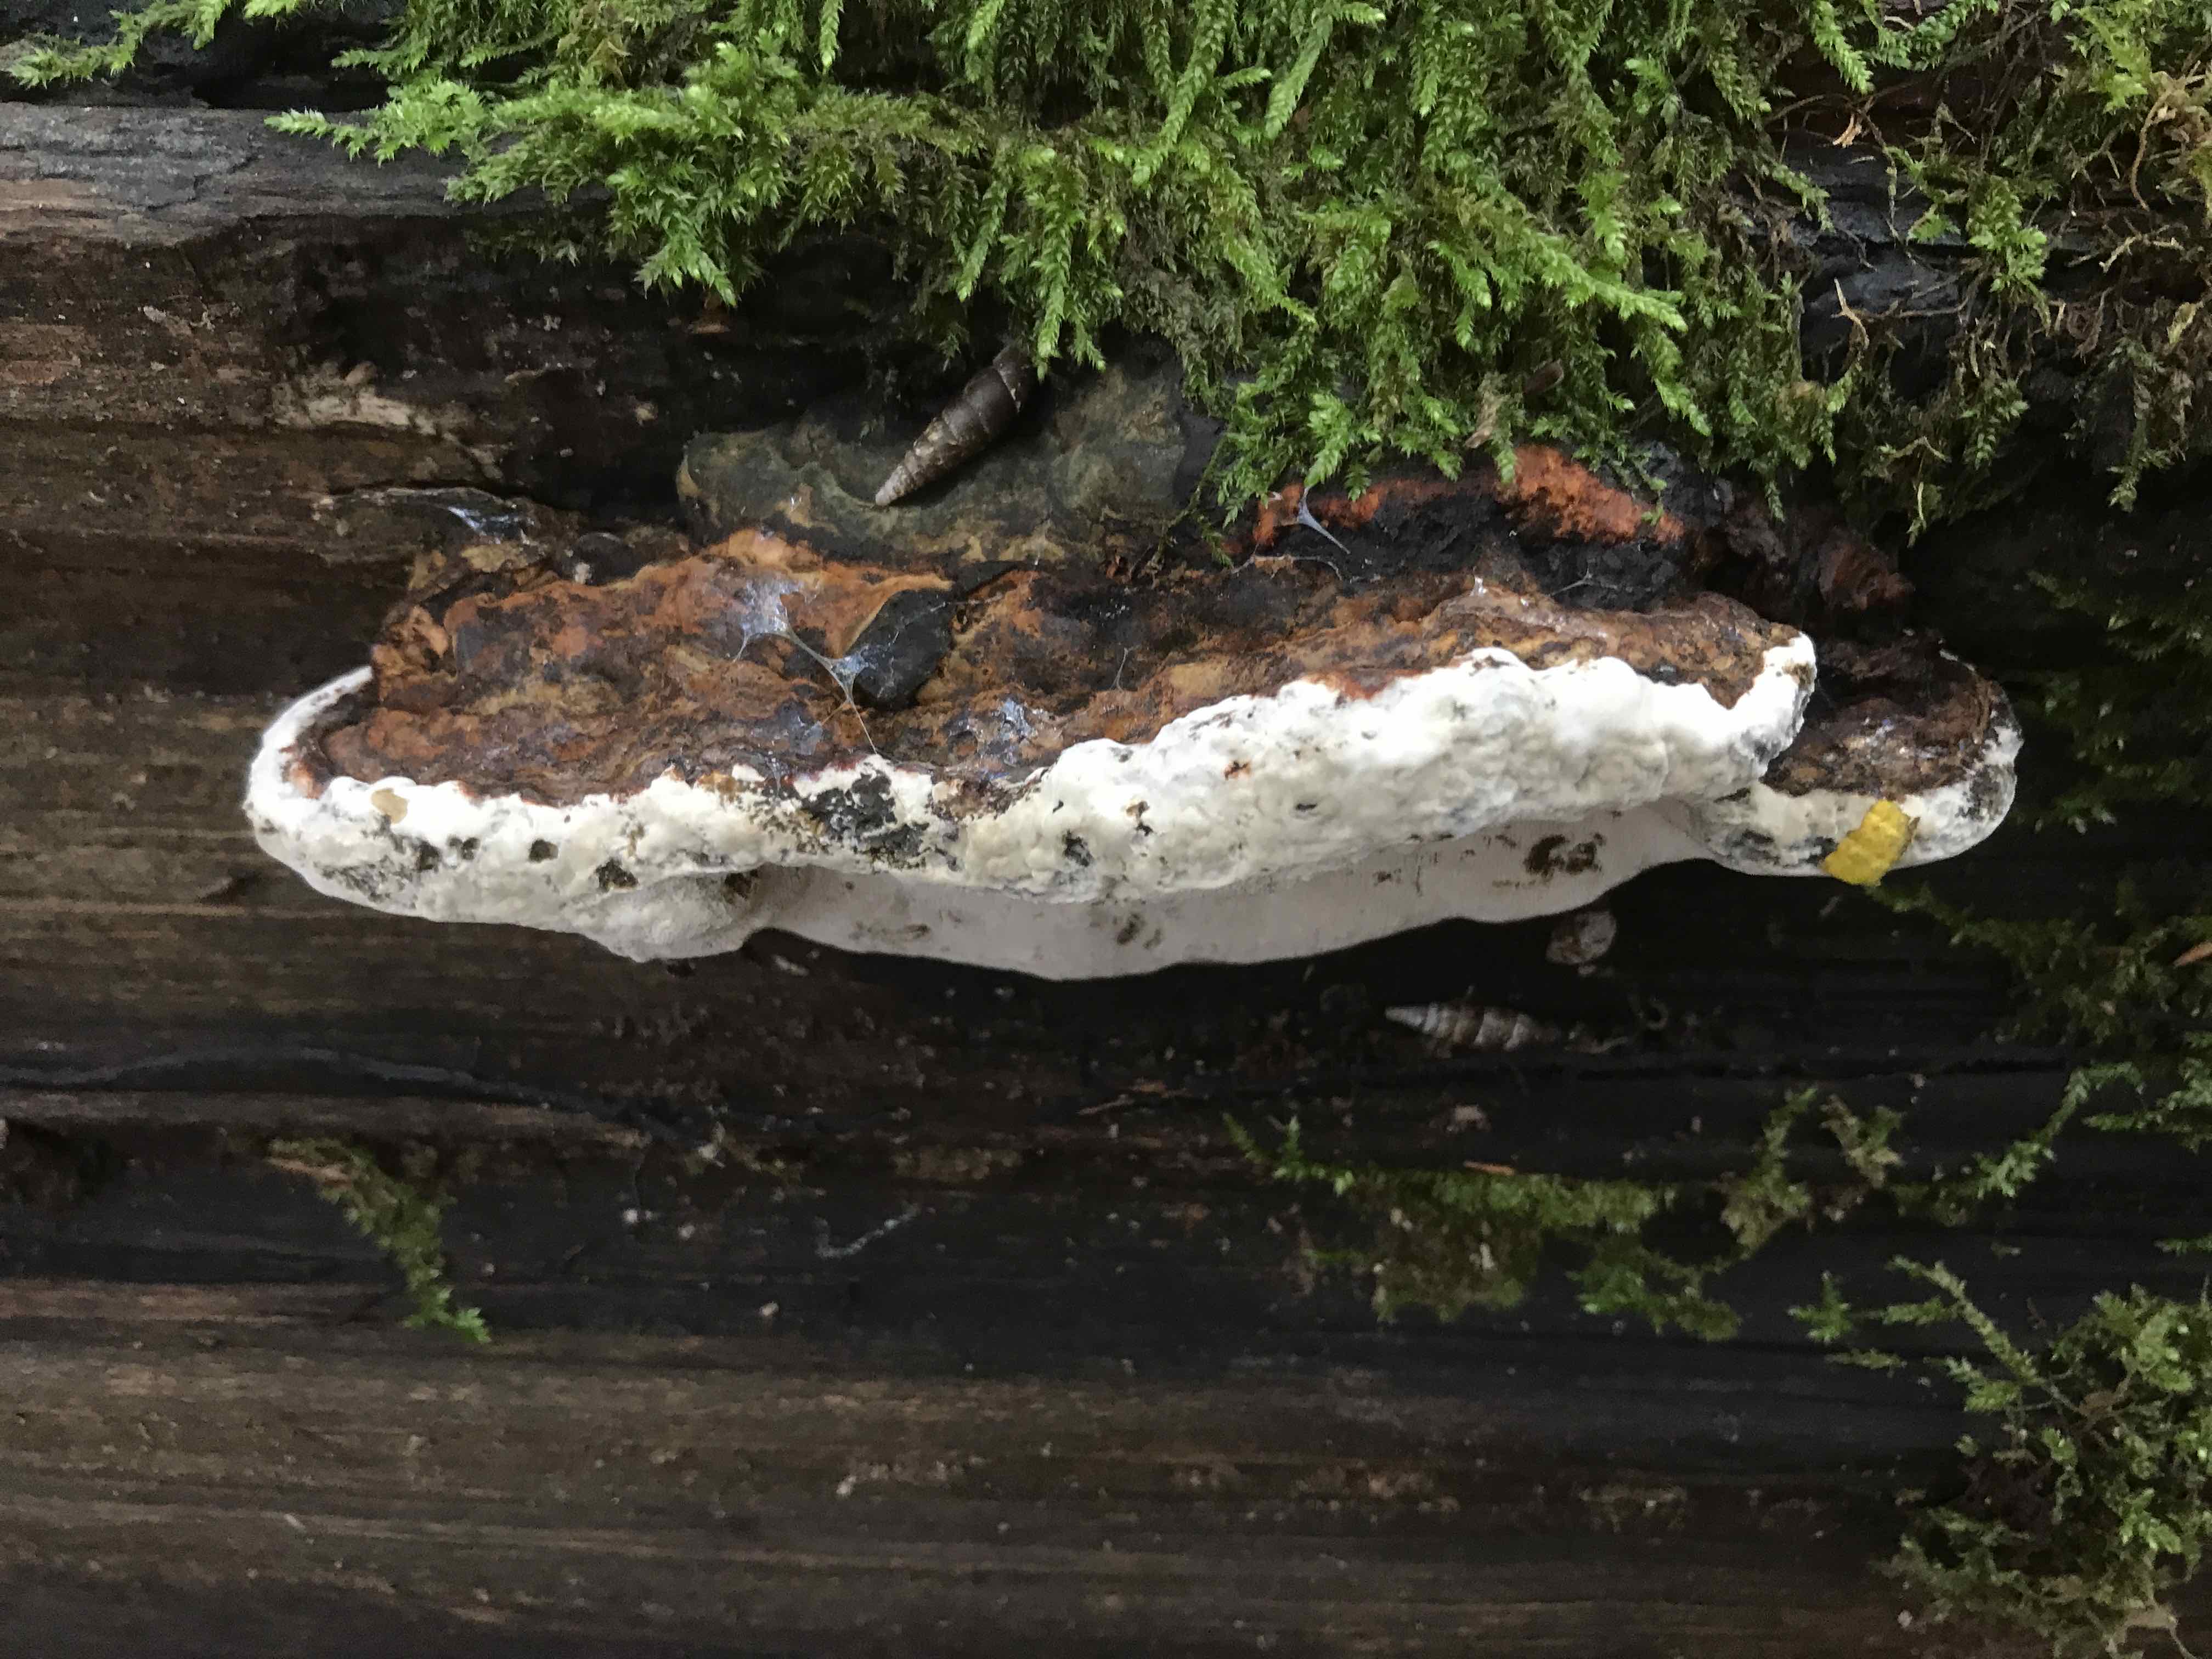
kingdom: Fungi
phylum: Basidiomycota
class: Agaricomycetes
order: Polyporales
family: Polyporaceae
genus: Ganoderma
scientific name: Ganoderma applanatum
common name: flad lakporesvamp
